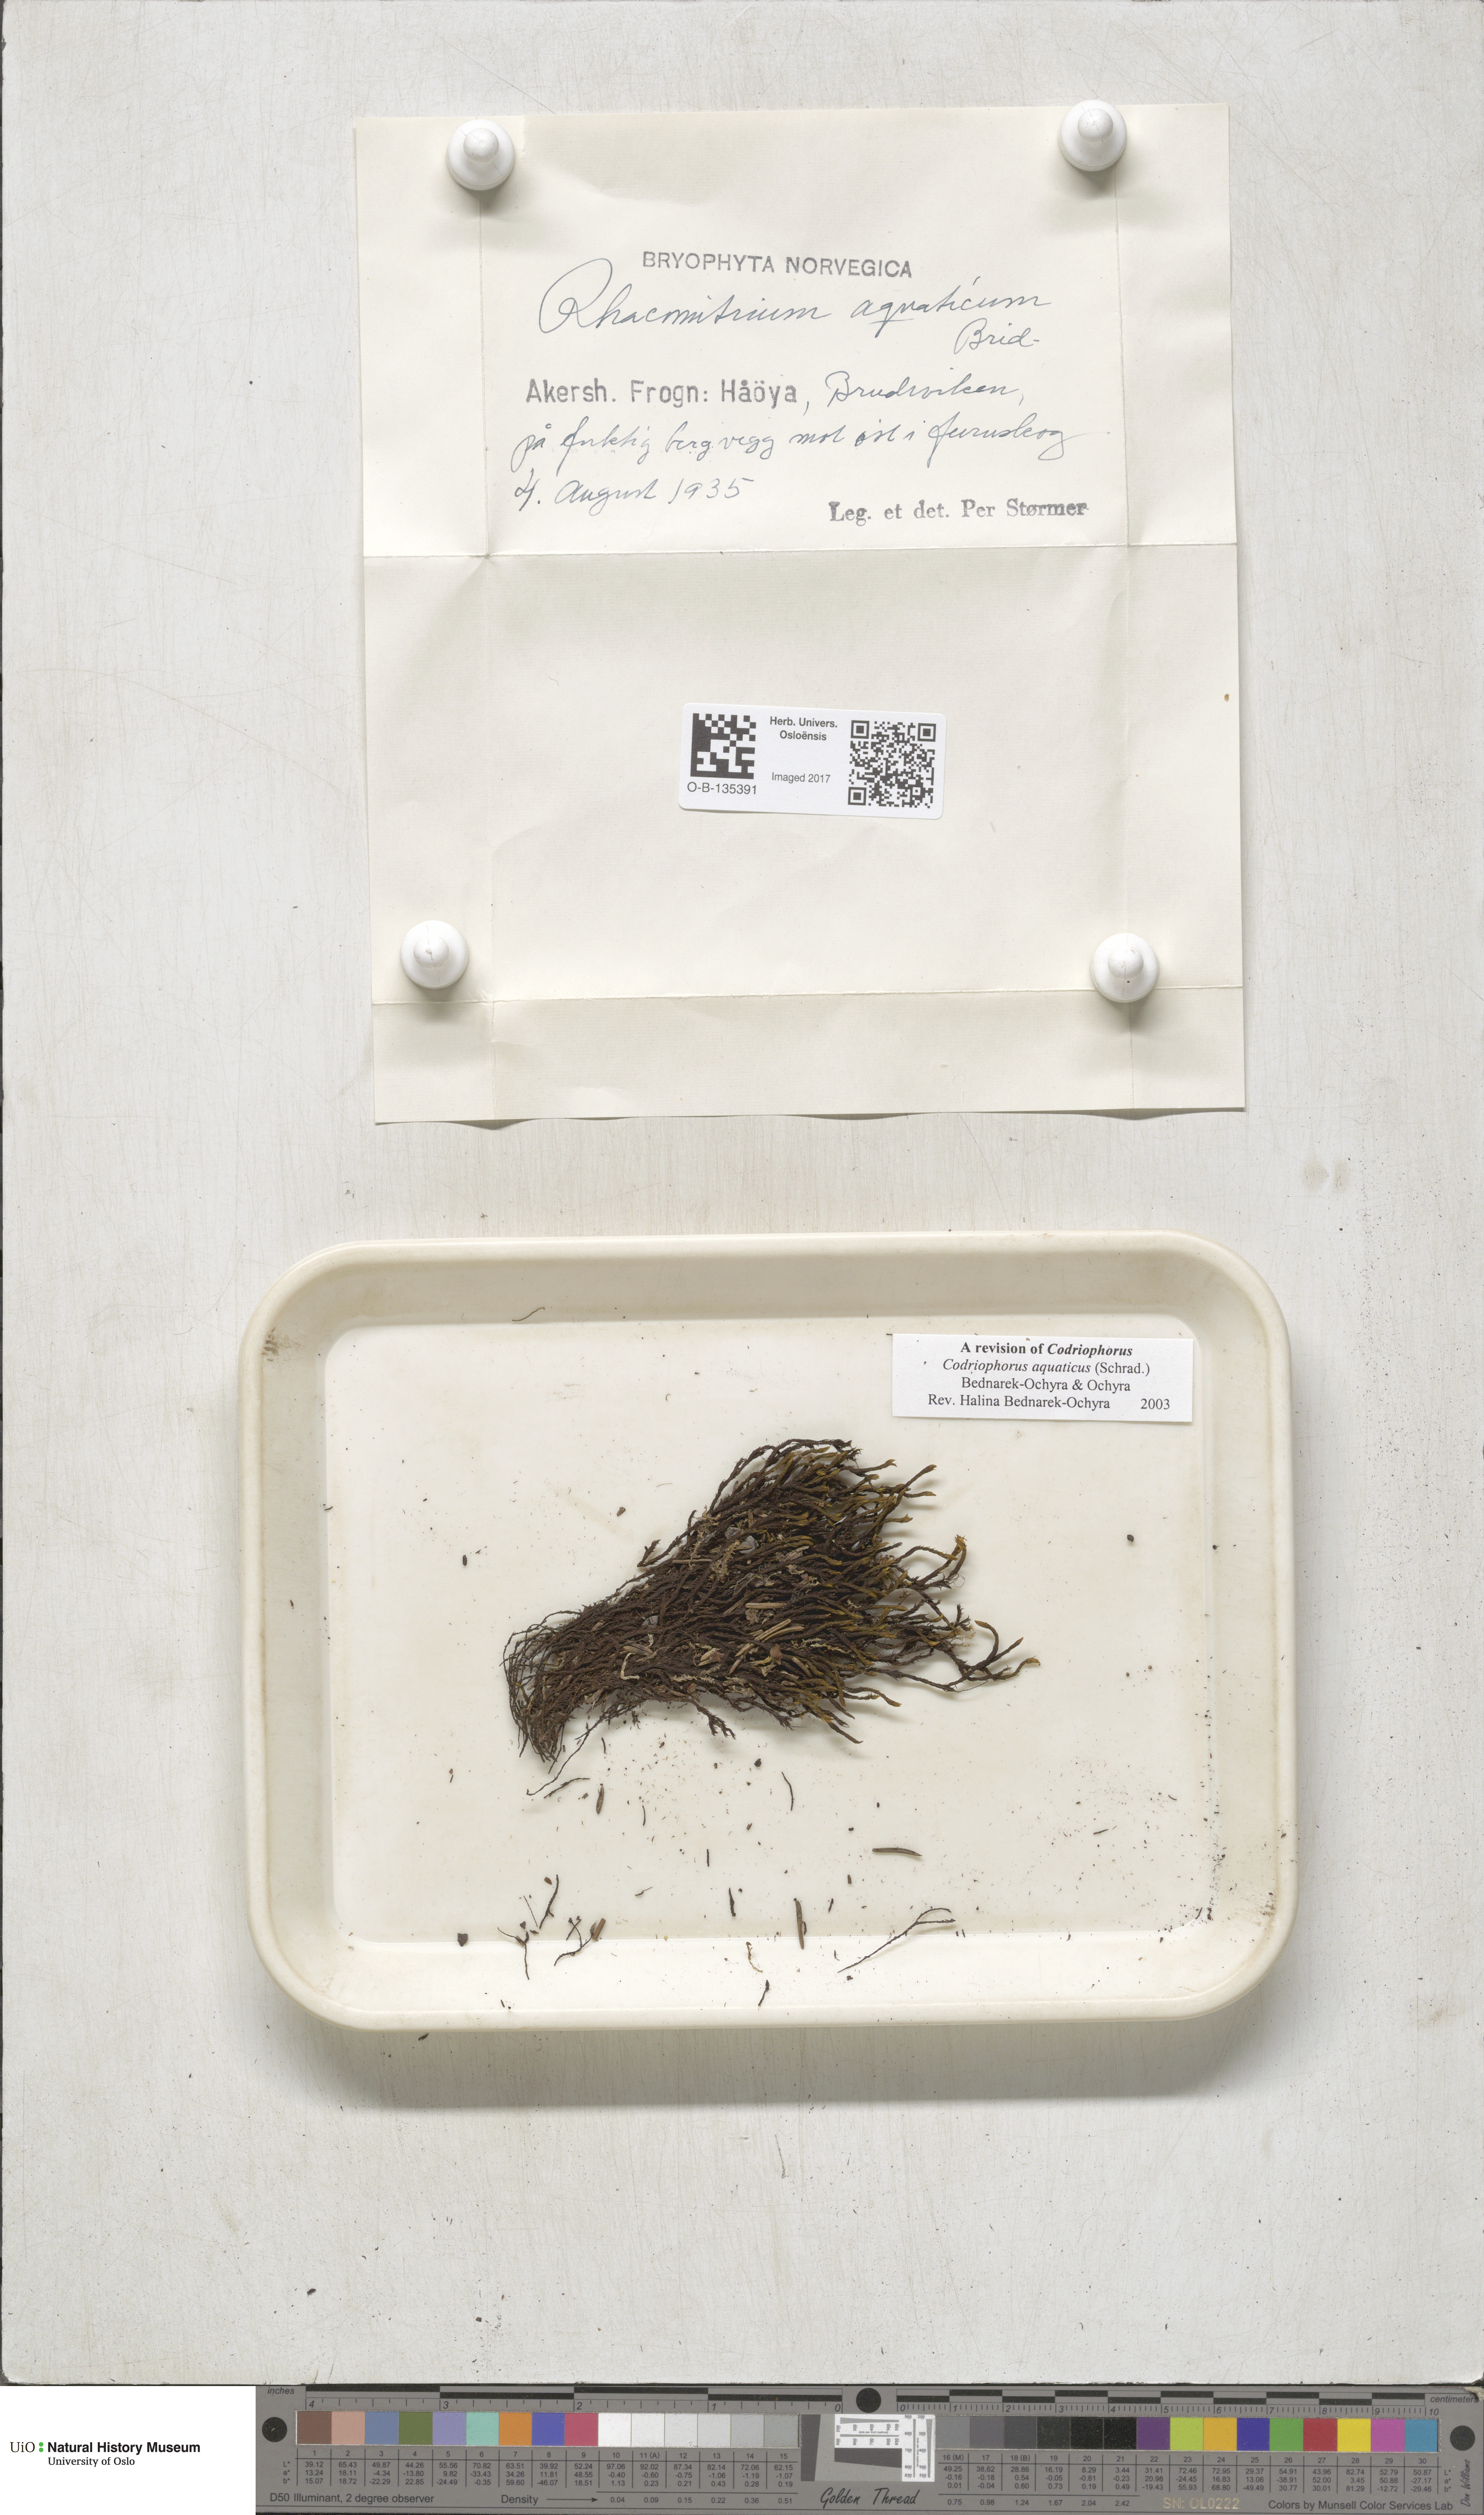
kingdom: Plantae
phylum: Bryophyta
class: Bryopsida
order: Grimmiales
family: Grimmiaceae
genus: Codriophorus
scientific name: Codriophorus aquaticus
